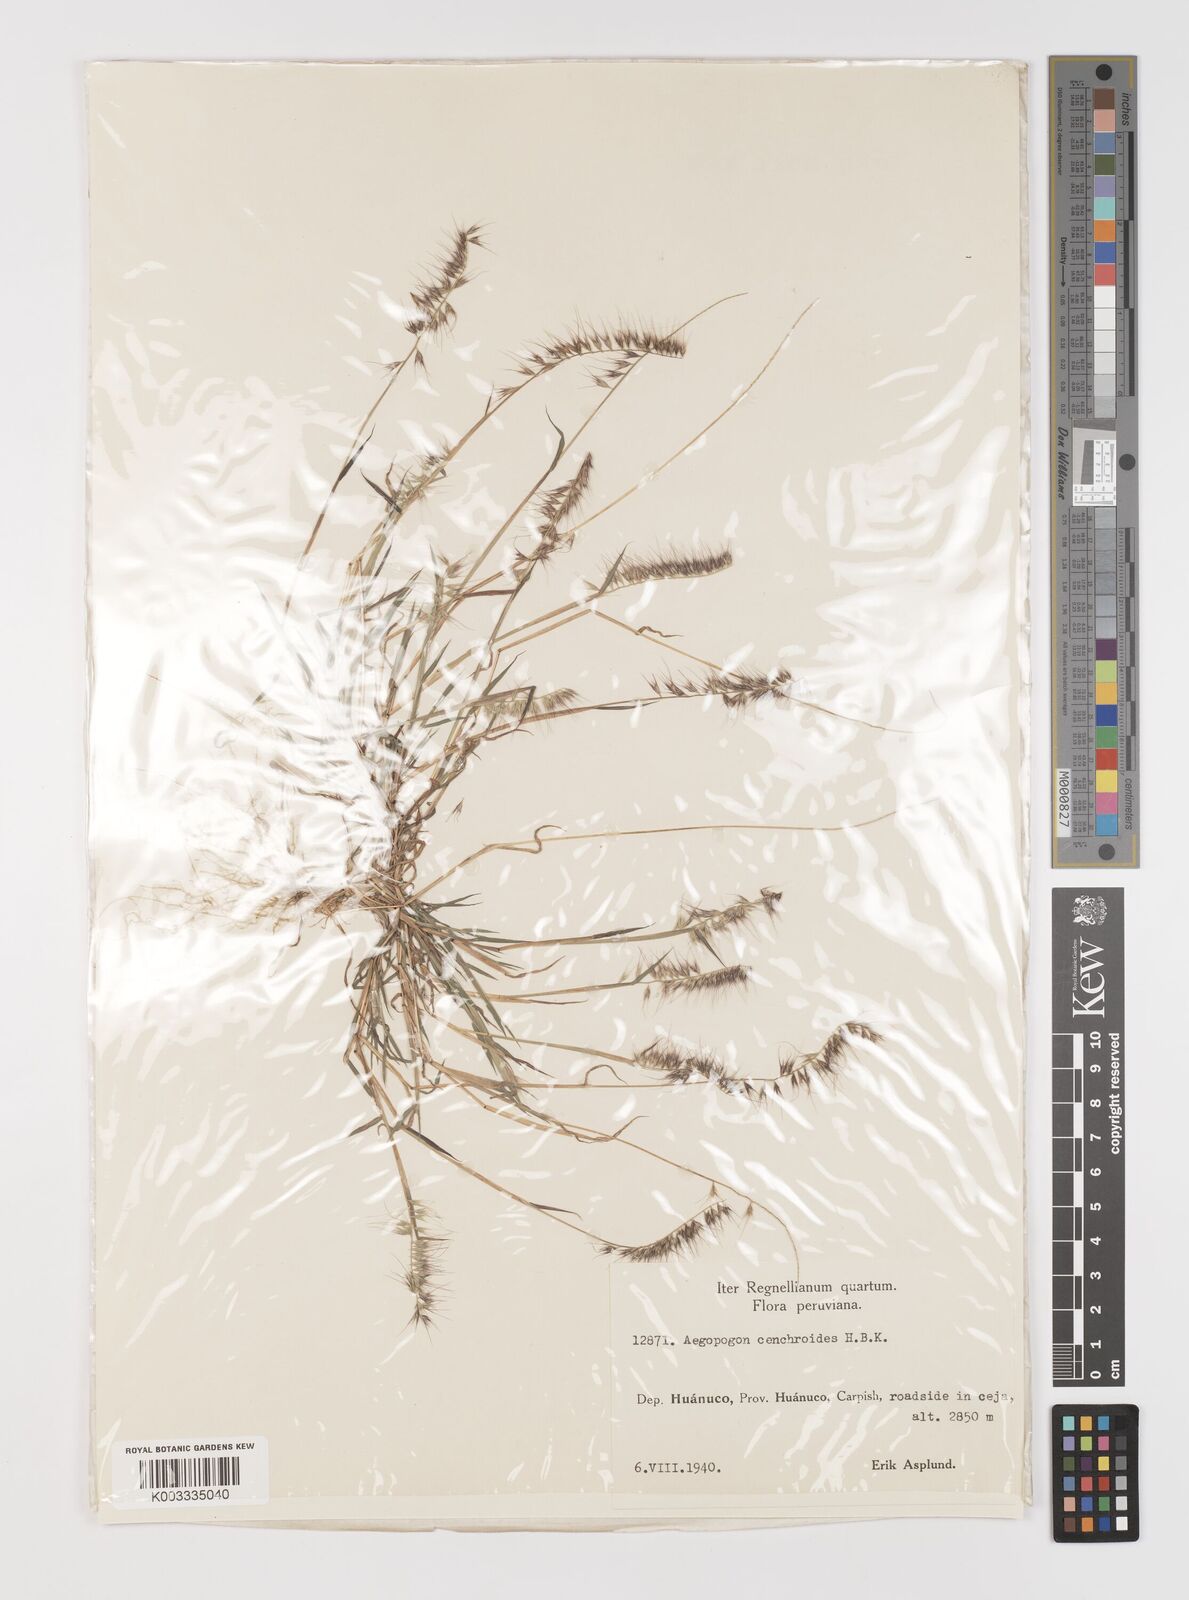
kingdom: Plantae
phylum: Tracheophyta
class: Liliopsida
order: Poales
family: Poaceae
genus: Muhlenbergia
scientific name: Muhlenbergia cenchroides
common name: Relaxgrass
